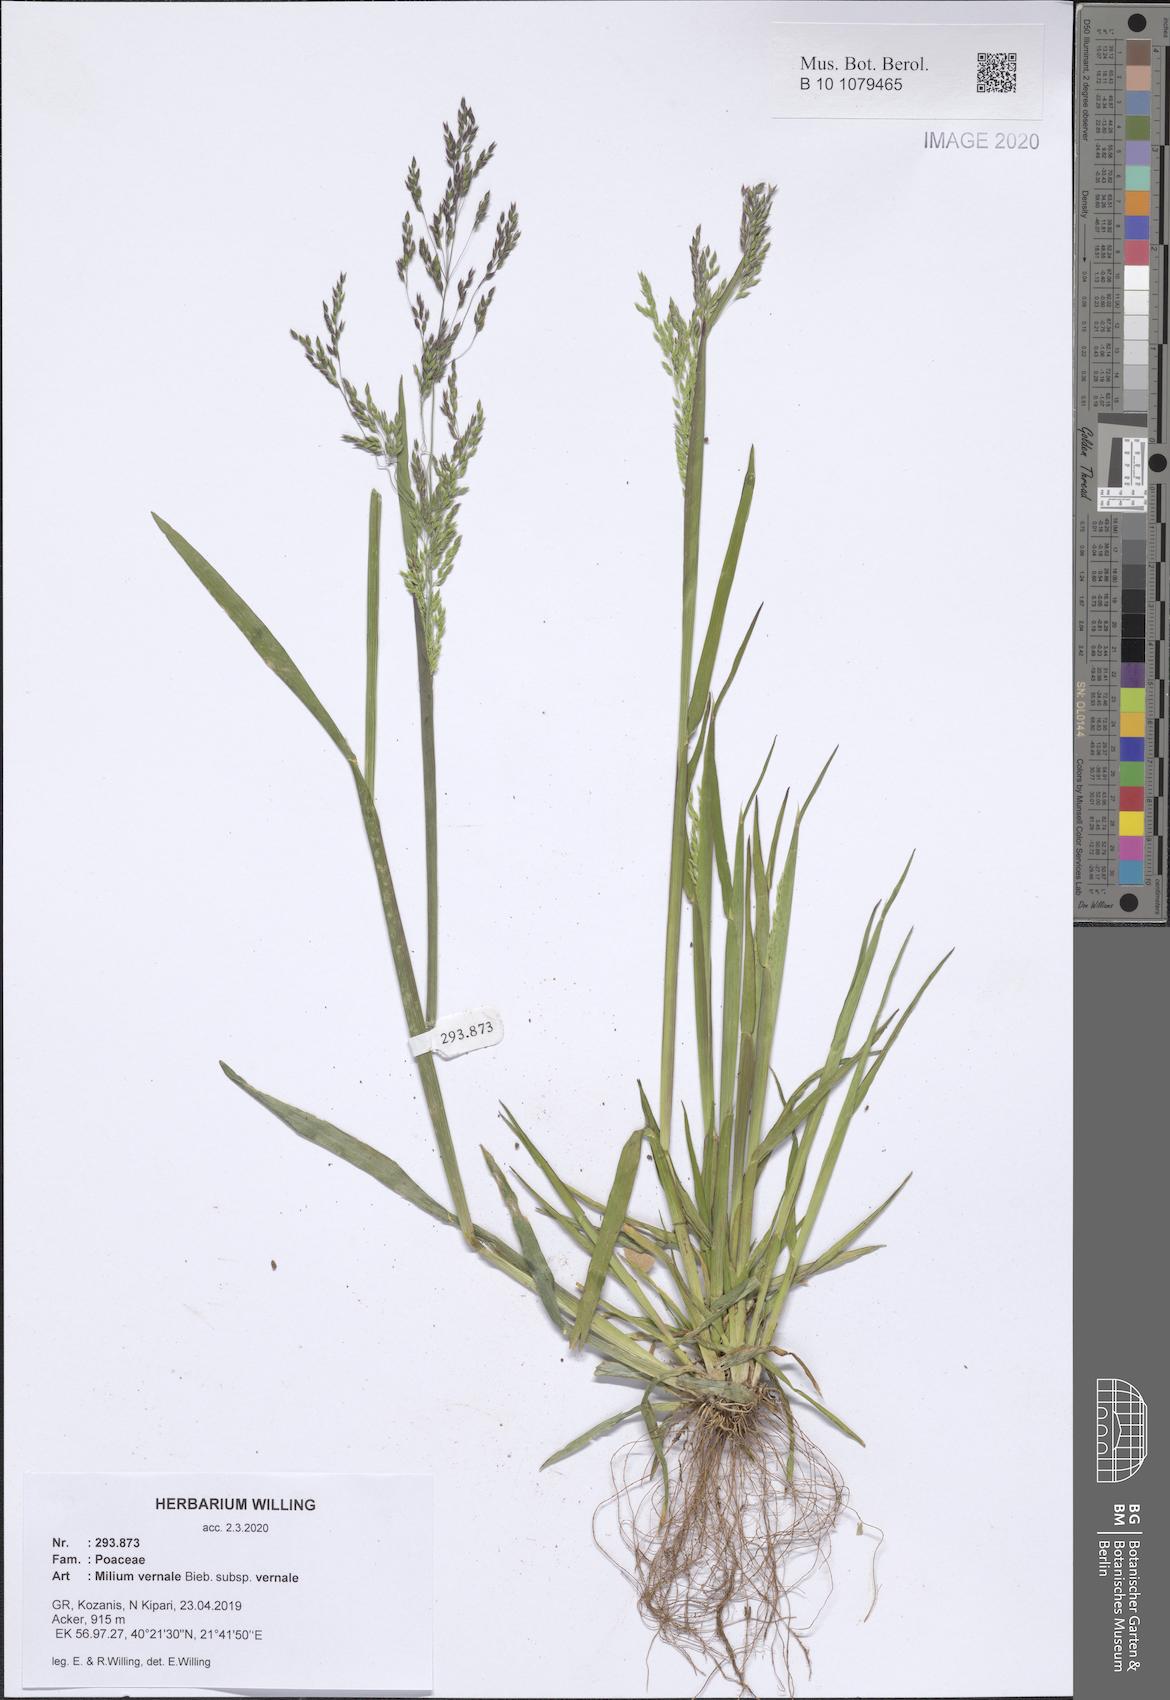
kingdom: Plantae
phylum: Tracheophyta
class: Liliopsida
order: Poales
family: Poaceae
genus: Milium
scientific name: Milium vernale
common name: Early millet
